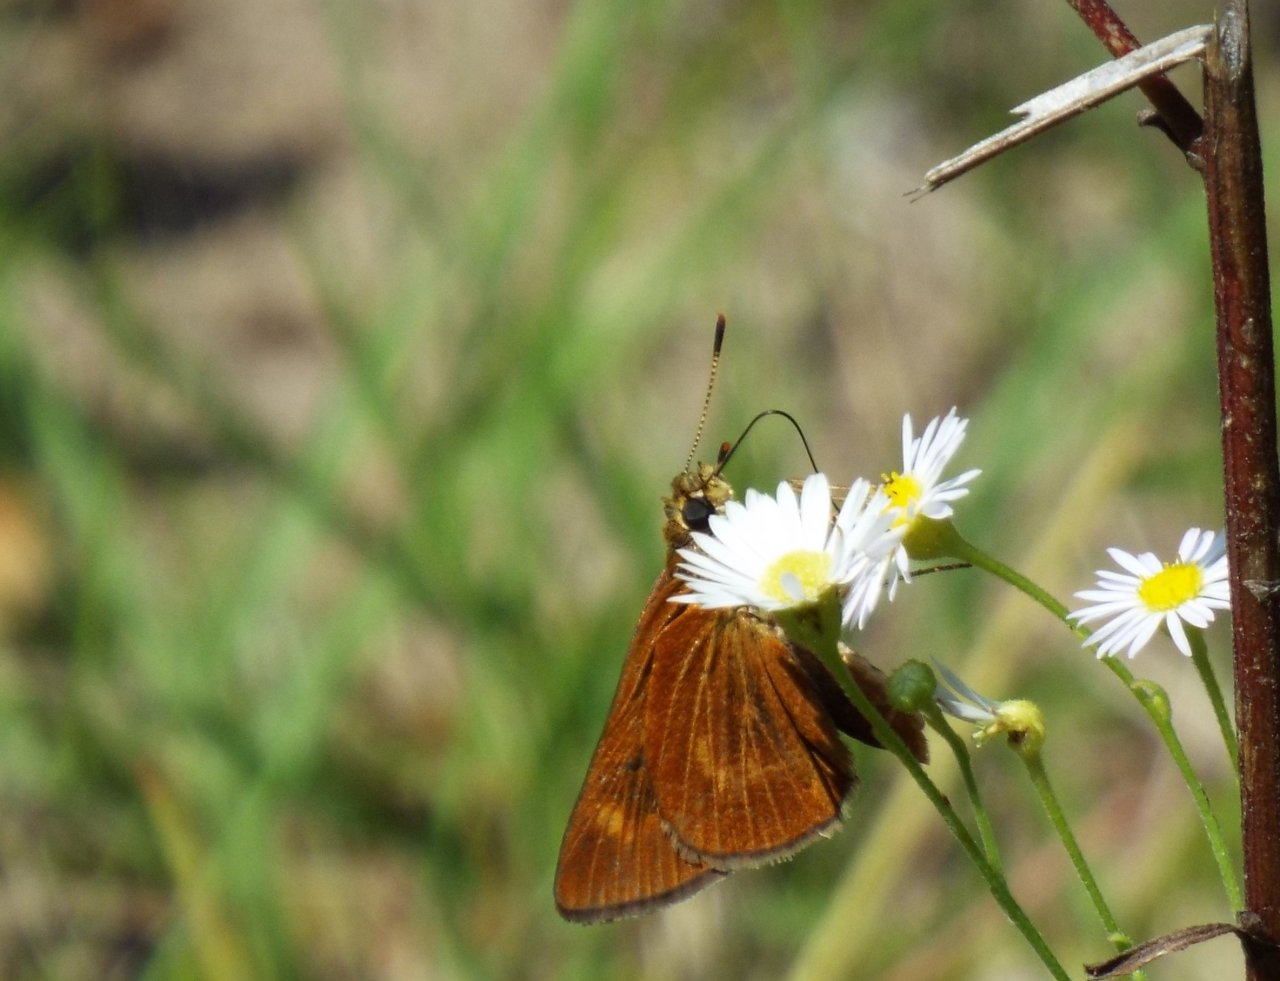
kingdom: Animalia
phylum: Arthropoda
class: Insecta
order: Lepidoptera
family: Hesperiidae
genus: Wallengrenia
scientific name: Wallengrenia otho
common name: Southern Broken-Dash
